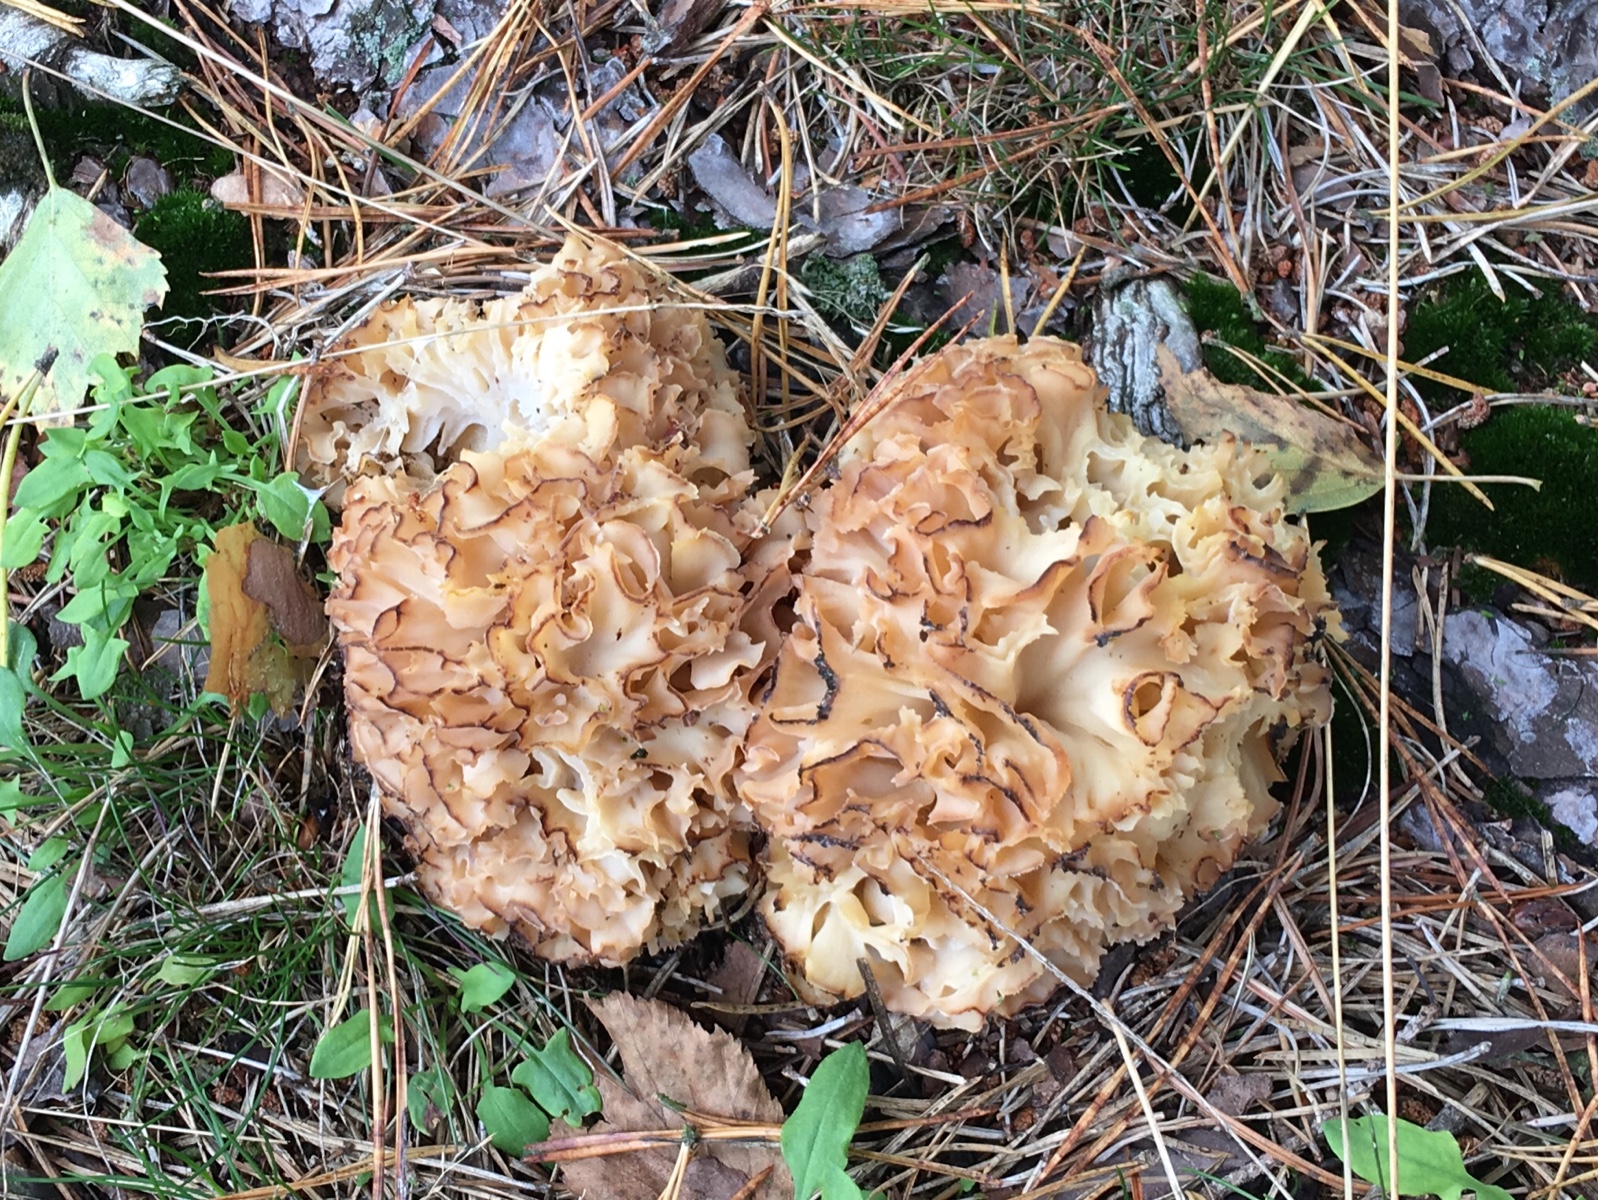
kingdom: Fungi
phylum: Basidiomycota
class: Agaricomycetes
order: Polyporales
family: Sparassidaceae
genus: Sparassis
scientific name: Sparassis crispa
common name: kruset blomkålssvamp
